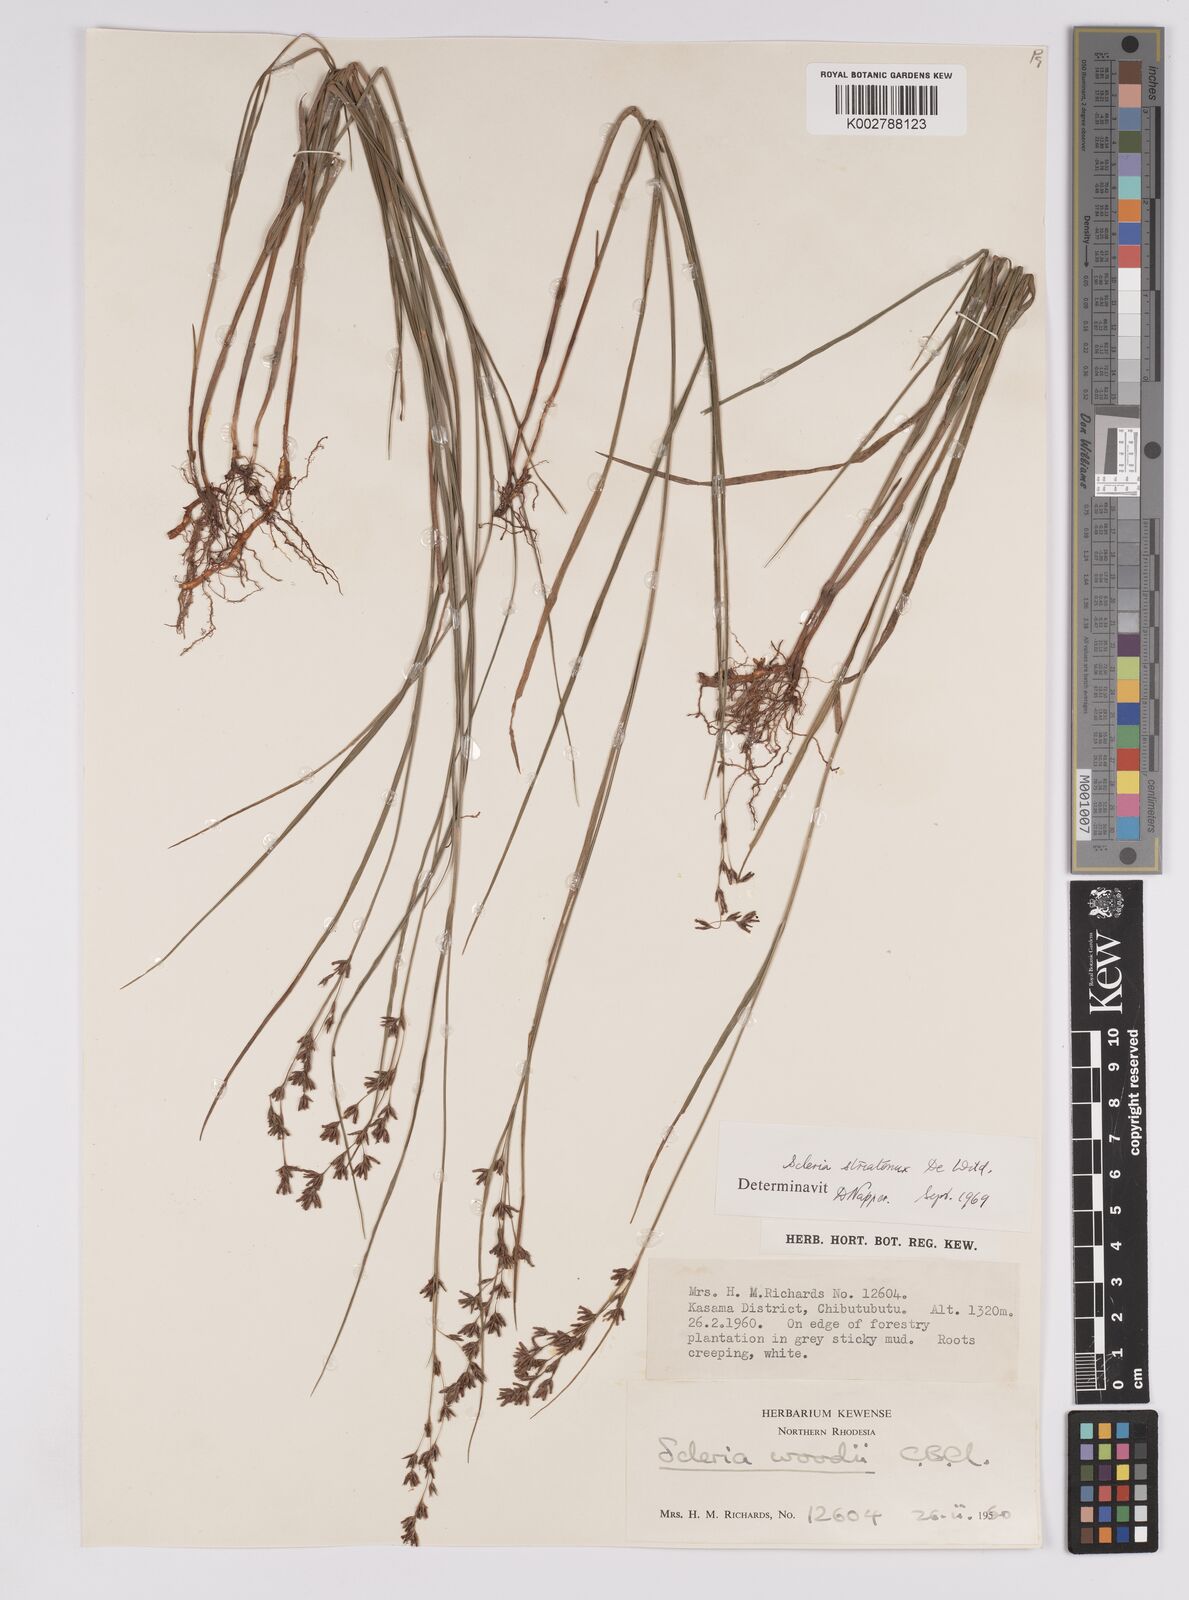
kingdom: Plantae
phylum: Tracheophyta
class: Liliopsida
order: Poales
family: Cyperaceae
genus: Scleria
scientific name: Scleria woodii
